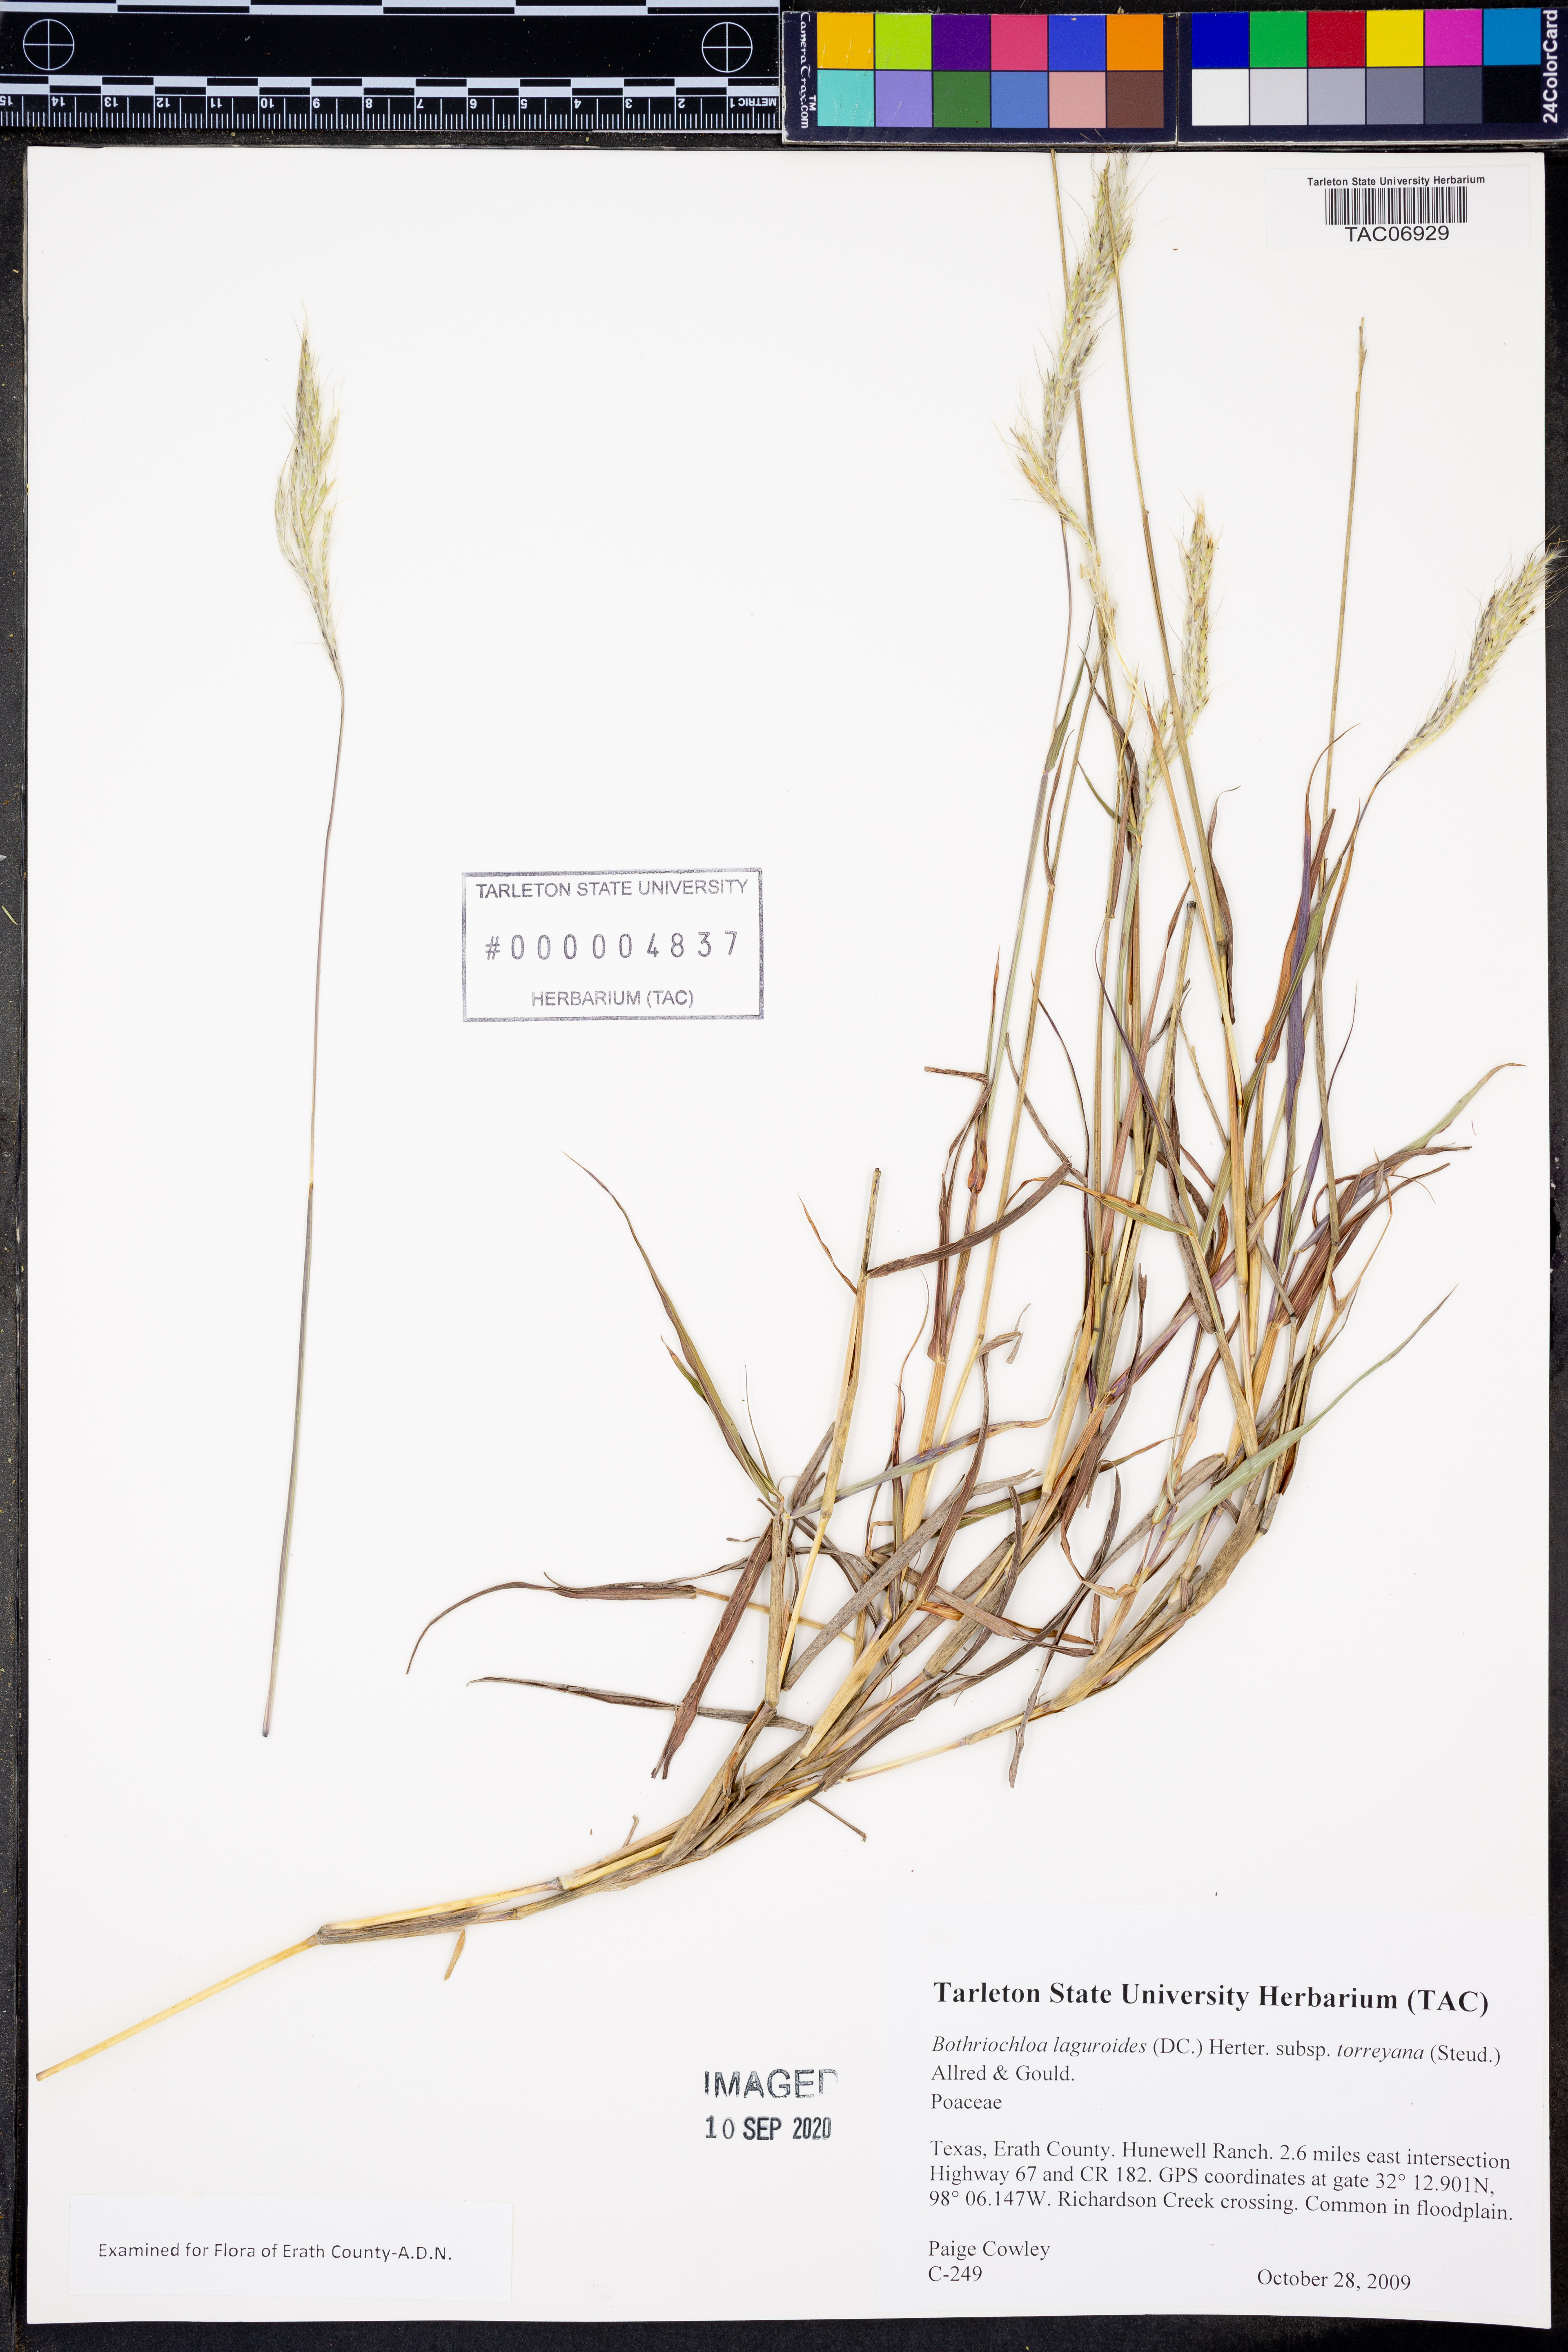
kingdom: Plantae
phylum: Tracheophyta
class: Liliopsida
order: Poales
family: Poaceae
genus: Bothriochloa
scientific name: Bothriochloa torreyana
